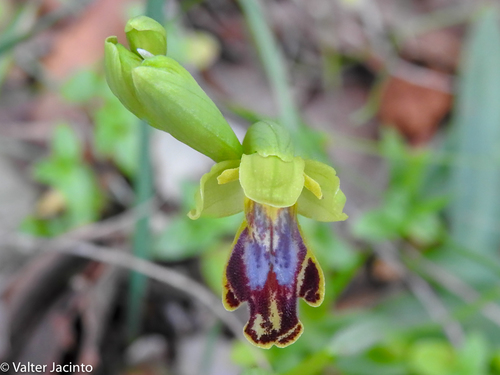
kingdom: Plantae
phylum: Tracheophyta
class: Liliopsida
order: Asparagales
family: Orchidaceae
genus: Ophrys
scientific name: Ophrys fusca
